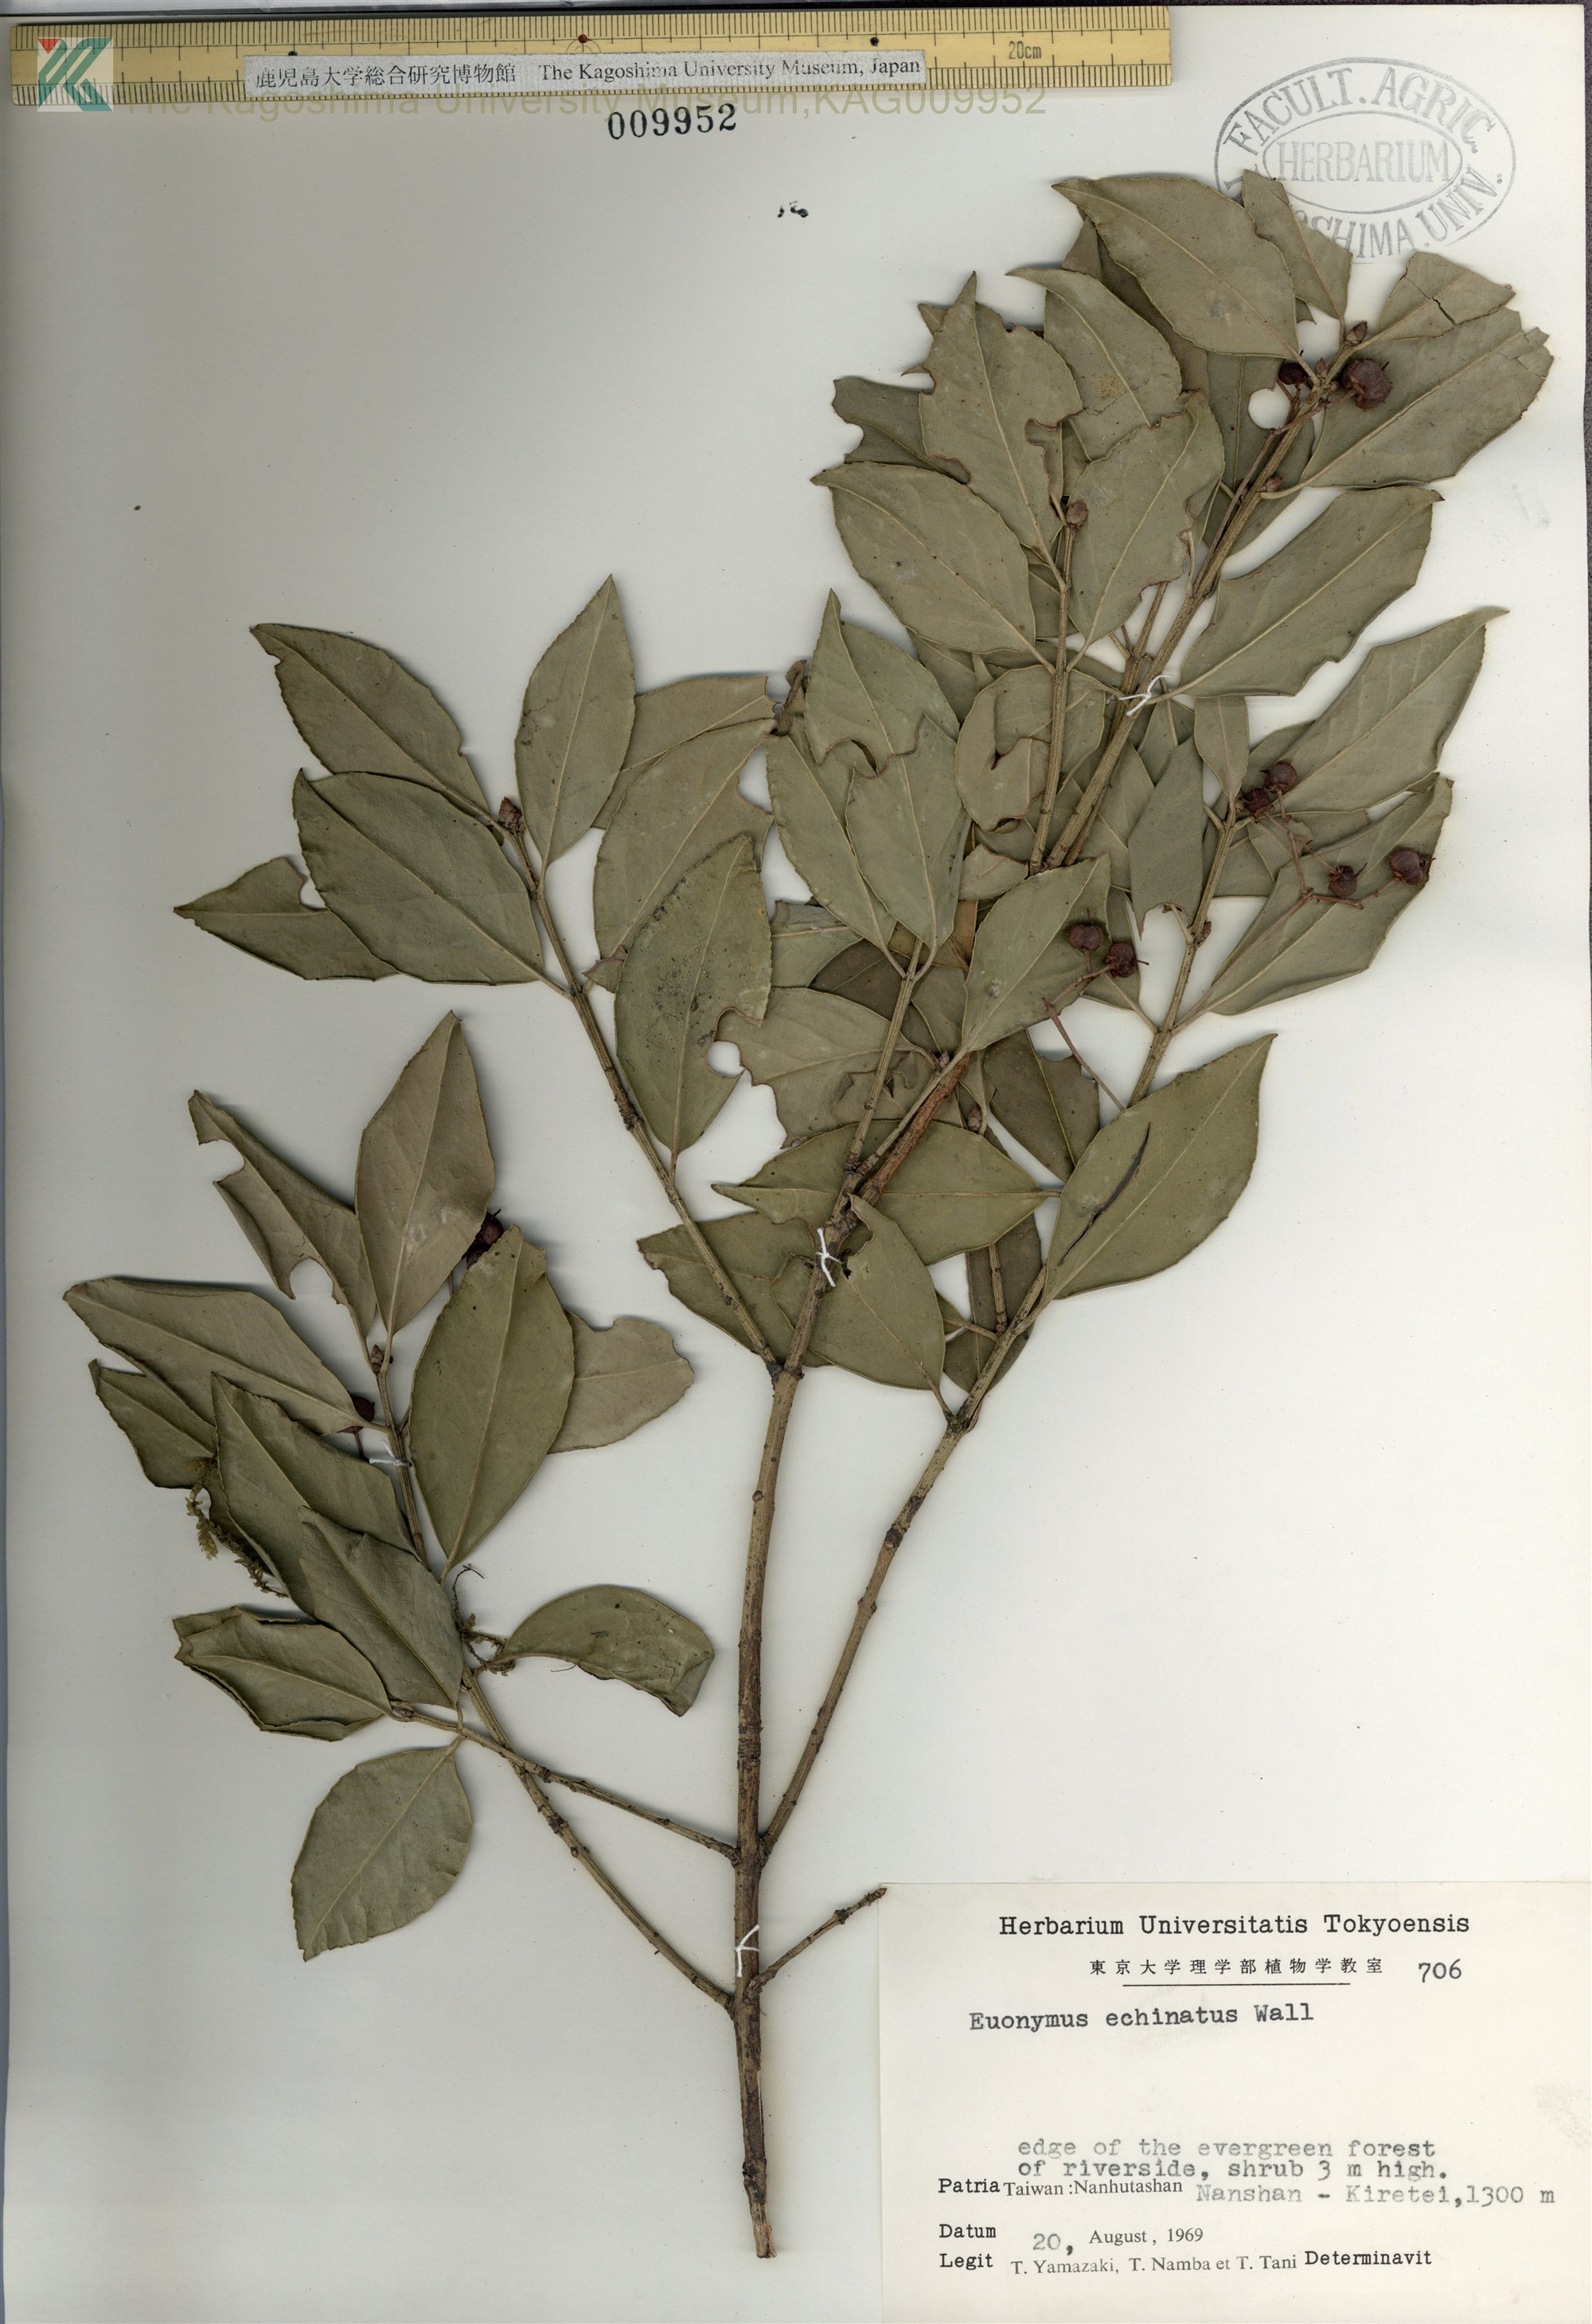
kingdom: Plantae
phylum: Tracheophyta
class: Magnoliopsida
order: Celastrales
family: Celastraceae
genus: Euonymus
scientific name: Euonymus echinatus
